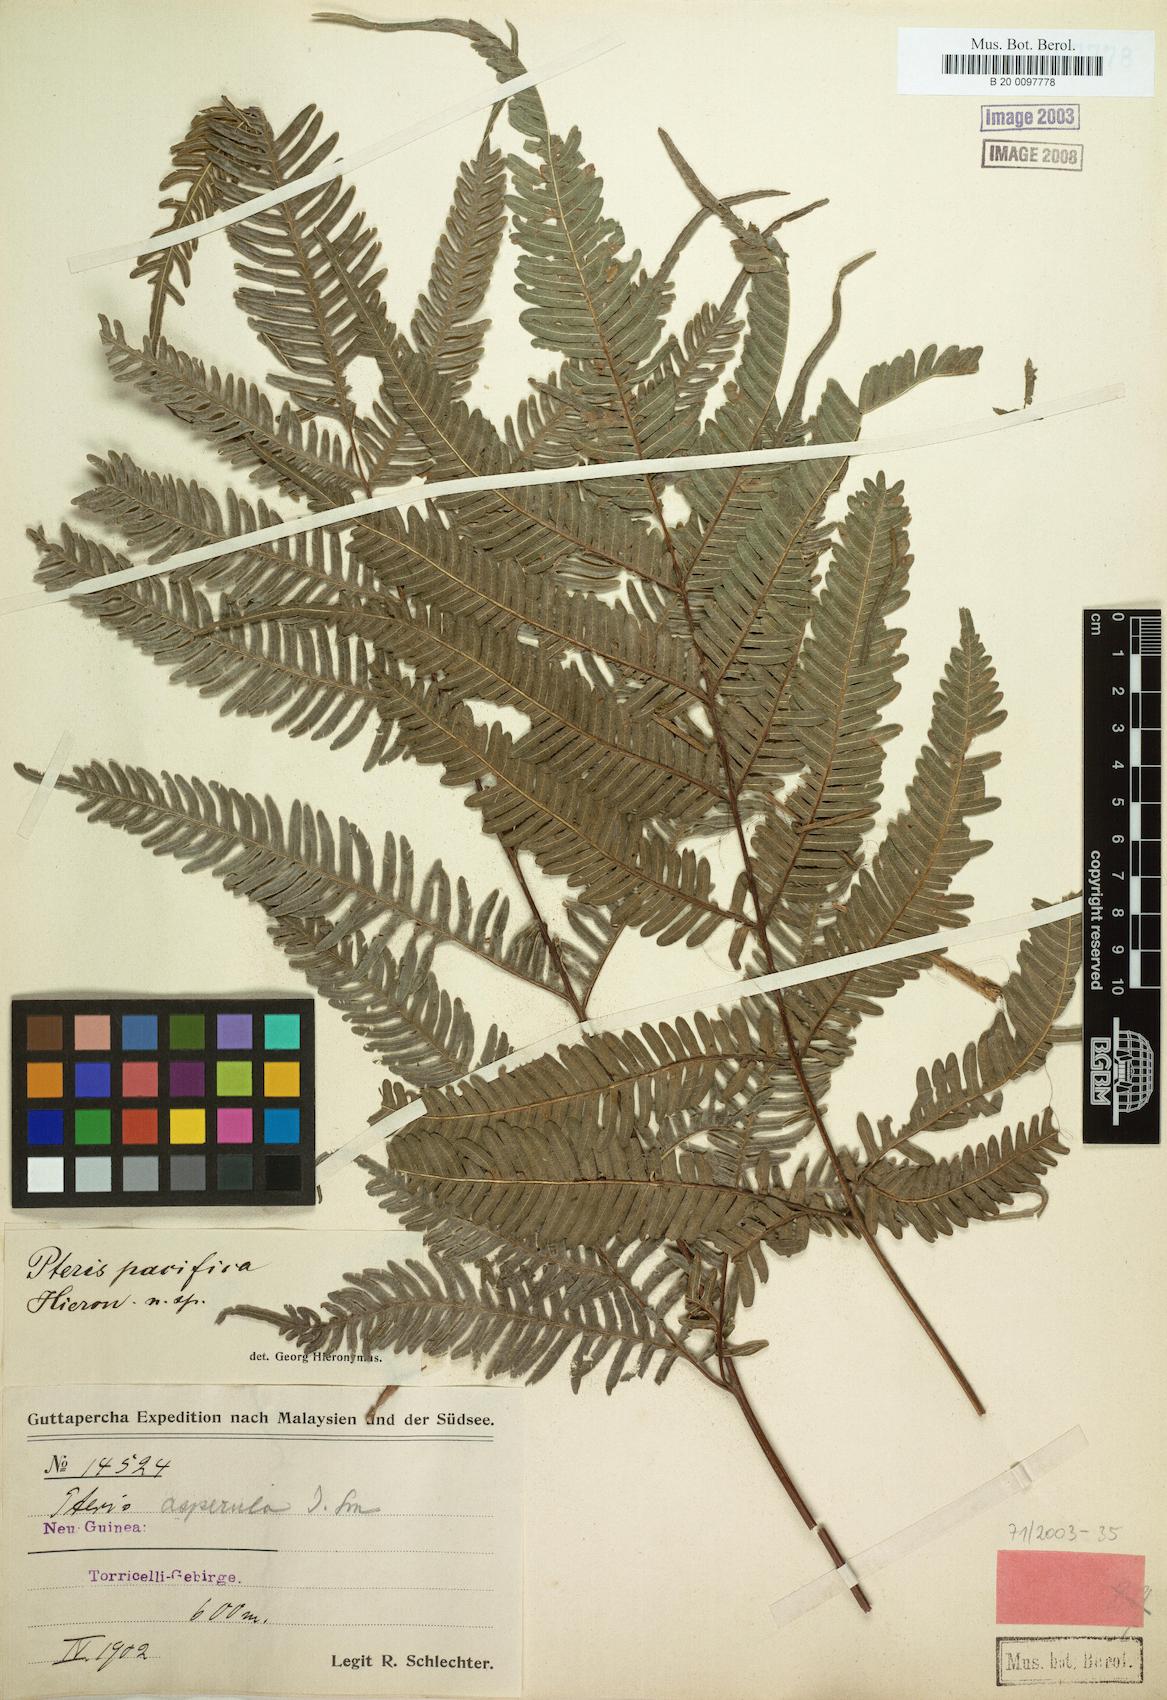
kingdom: Plantae
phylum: Tracheophyta
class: Polypodiopsida
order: Polypodiales
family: Pteridaceae
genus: Pteris
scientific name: Pteris biaurita
